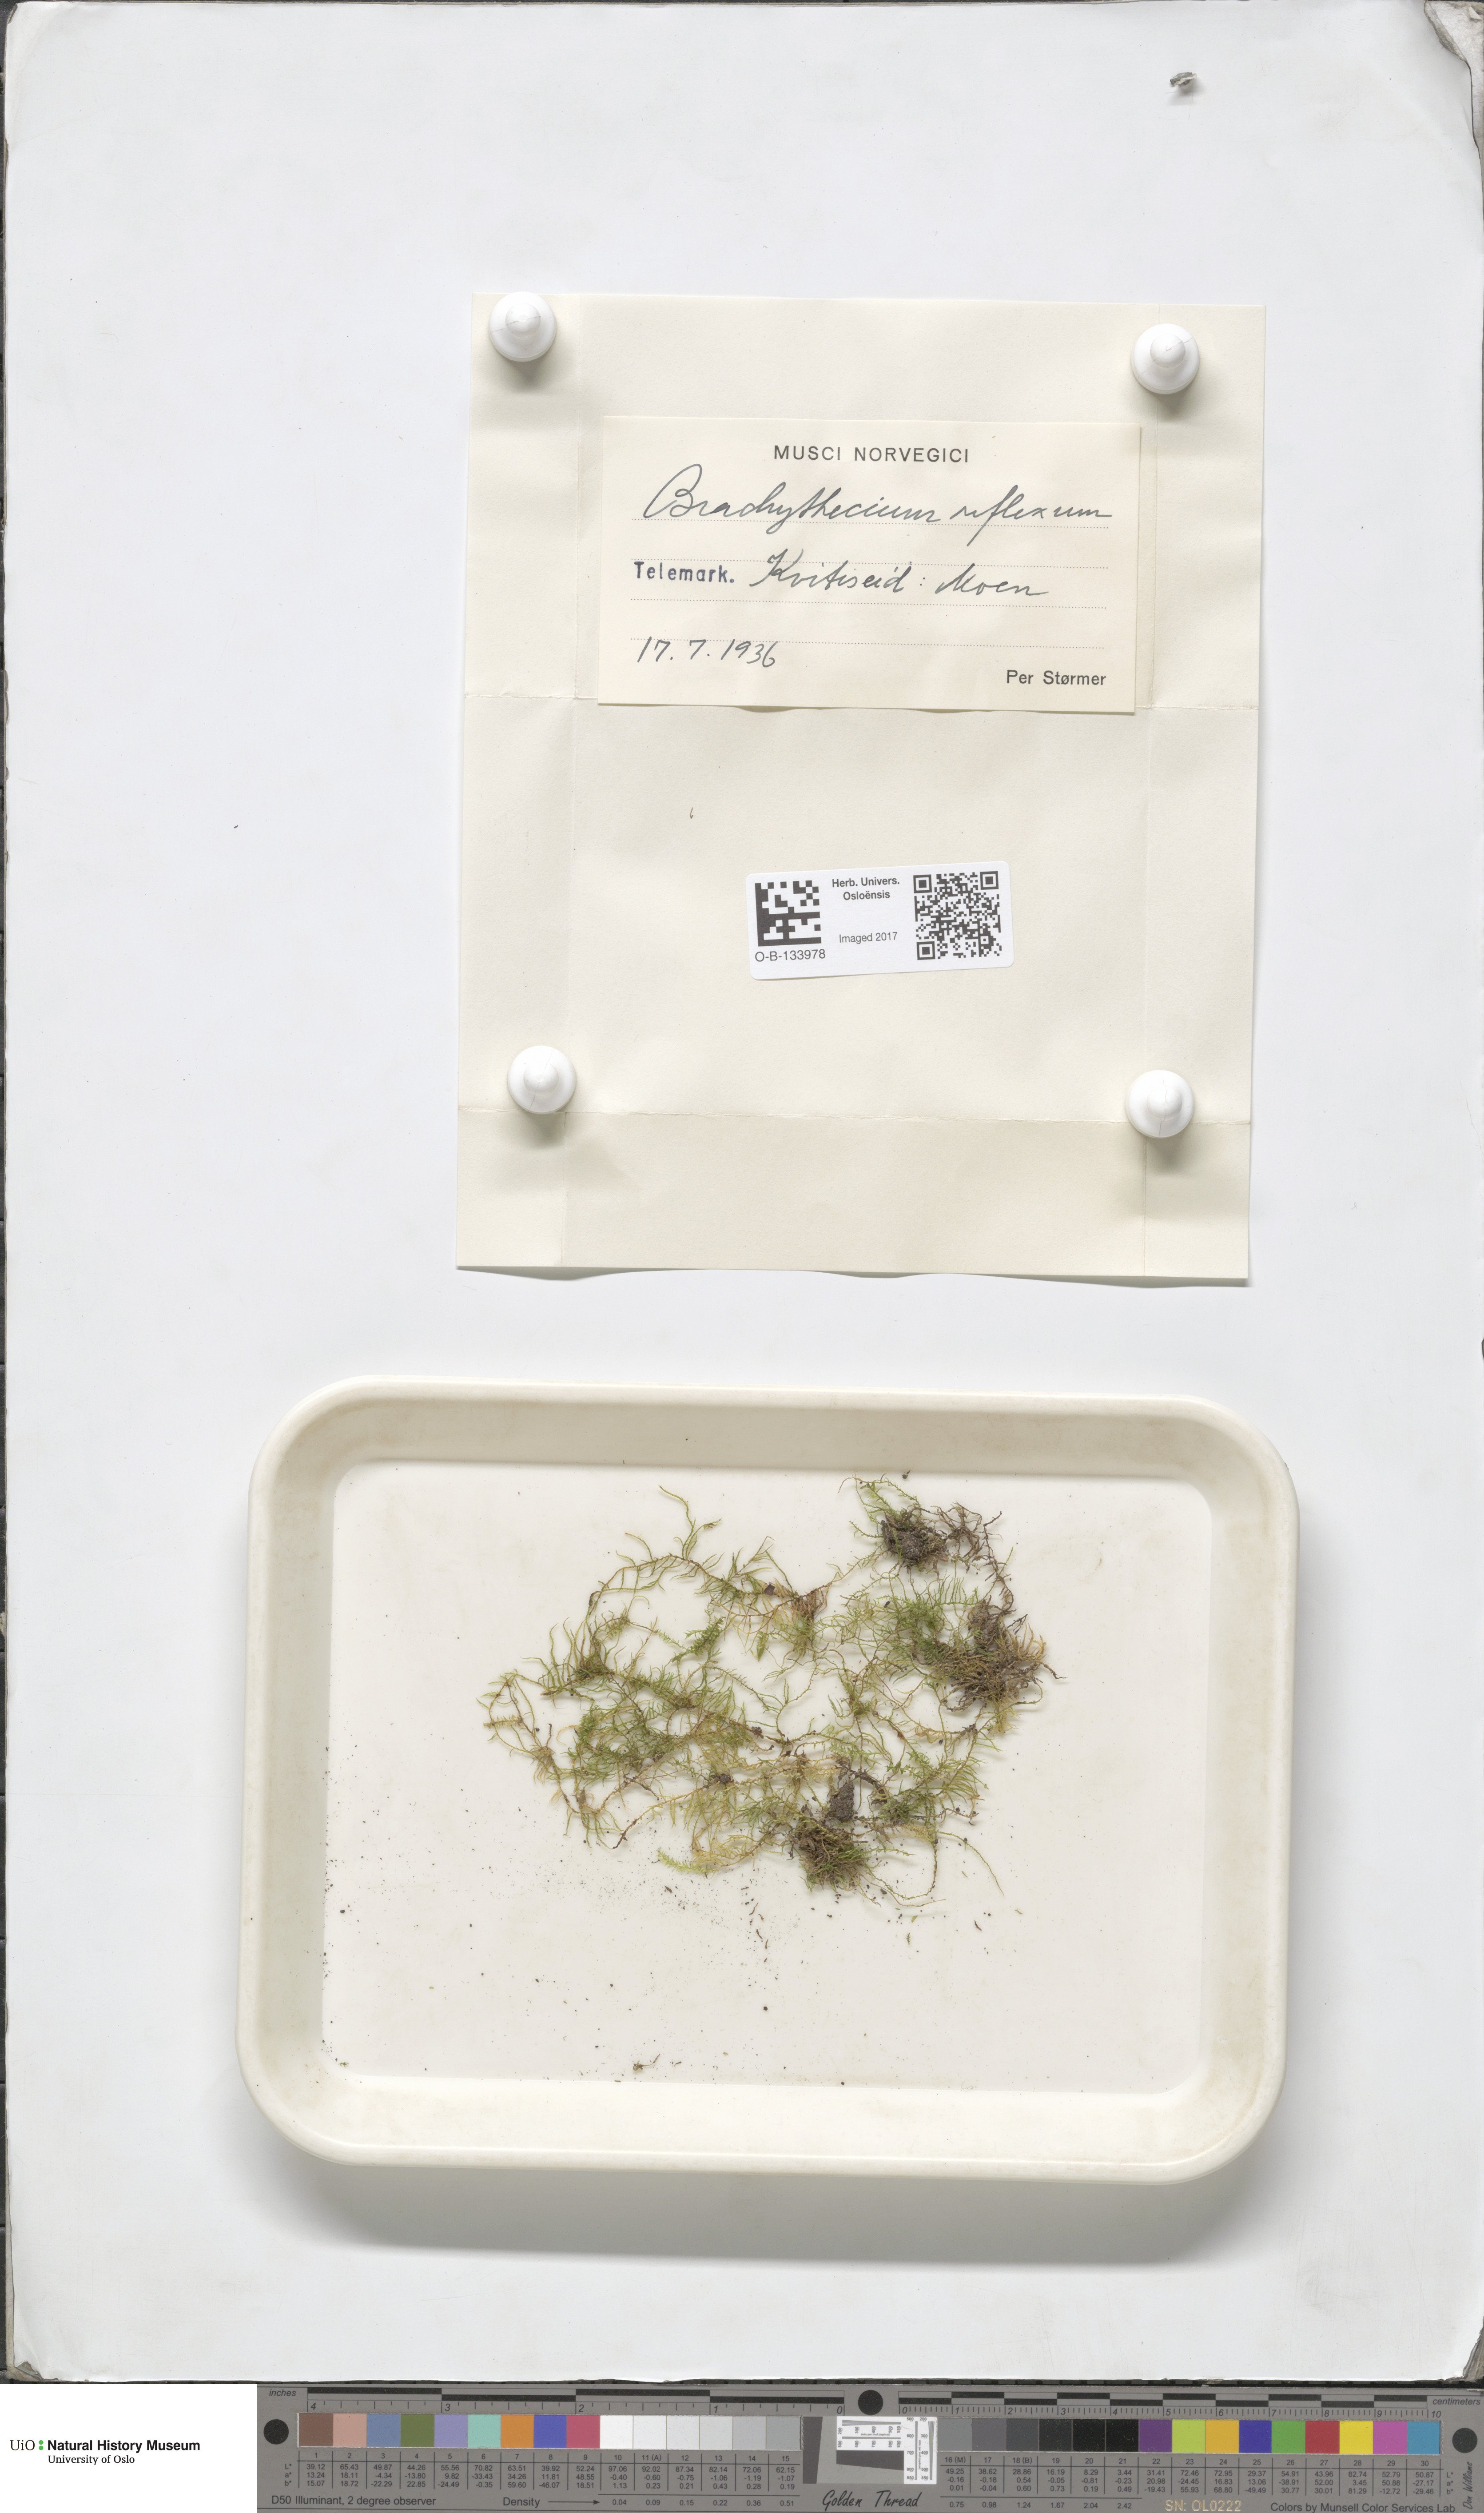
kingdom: Plantae
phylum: Bryophyta
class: Bryopsida
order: Hypnales
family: Brachytheciaceae
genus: Sciuro-hypnum
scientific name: Sciuro-hypnum reflexum
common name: Reflexed feather-moss
